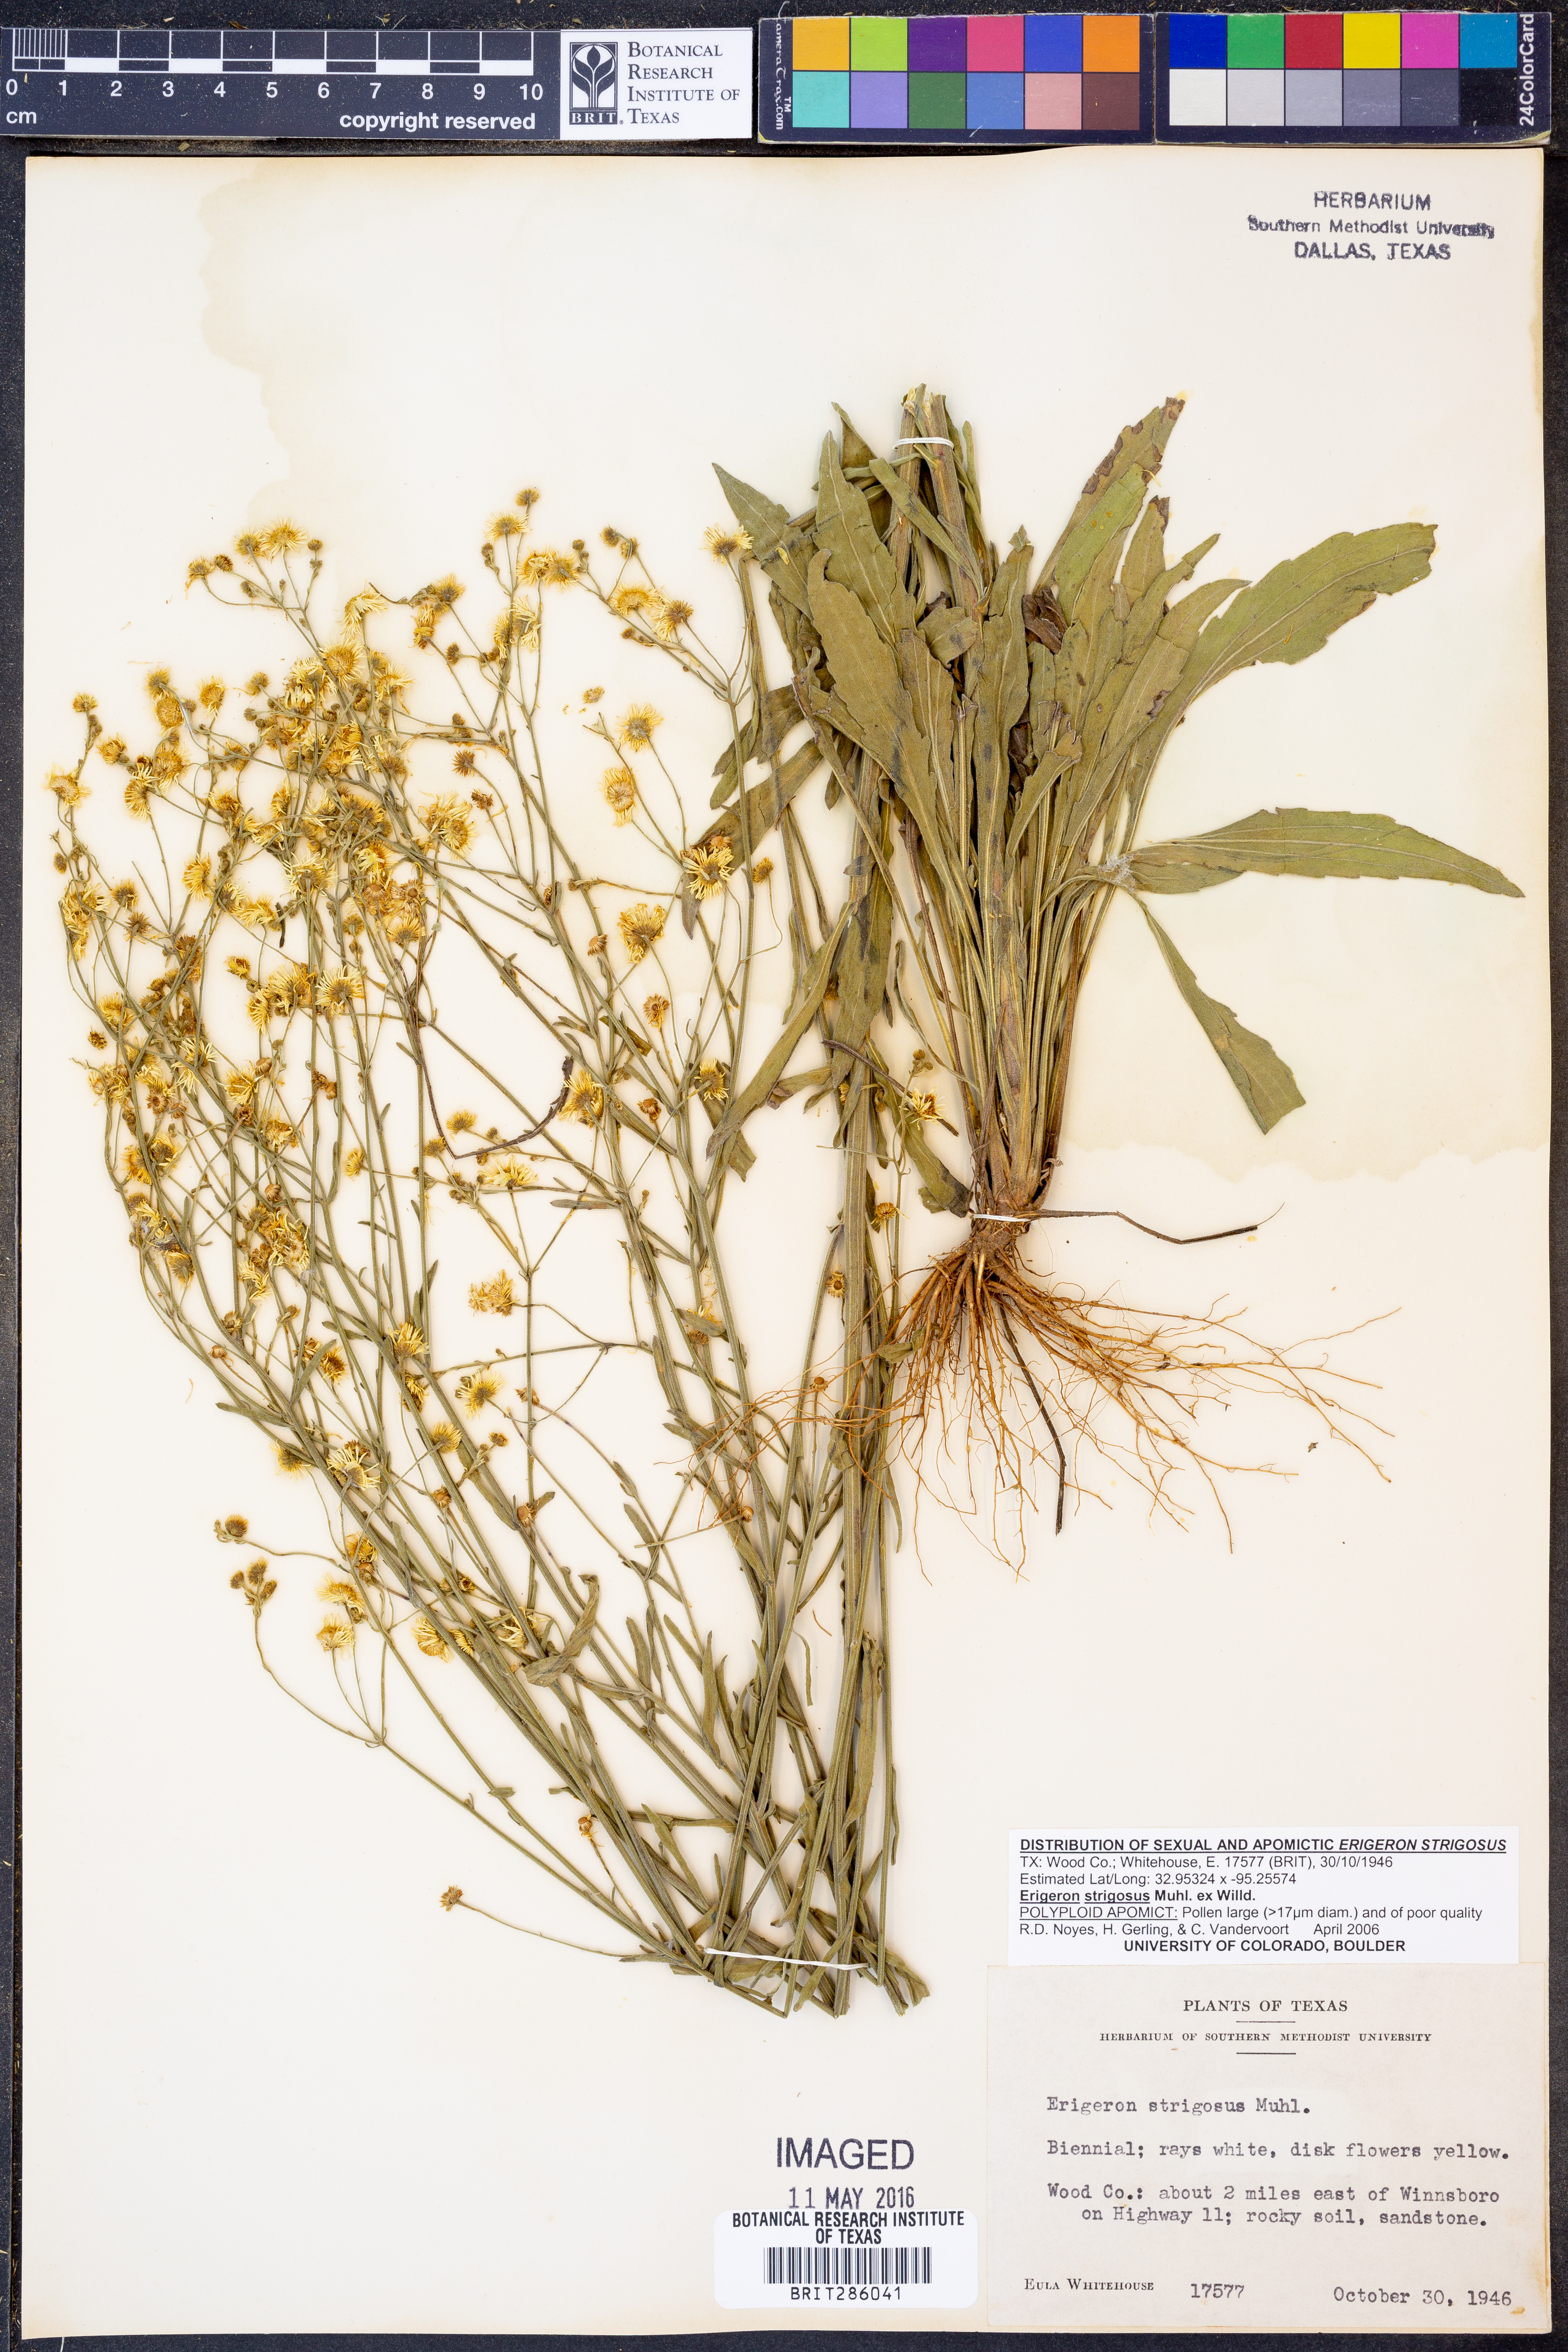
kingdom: Plantae
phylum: Tracheophyta
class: Magnoliopsida
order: Asterales
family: Asteraceae
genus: Erigeron
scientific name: Erigeron strigosus
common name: Common eastern fleabane
